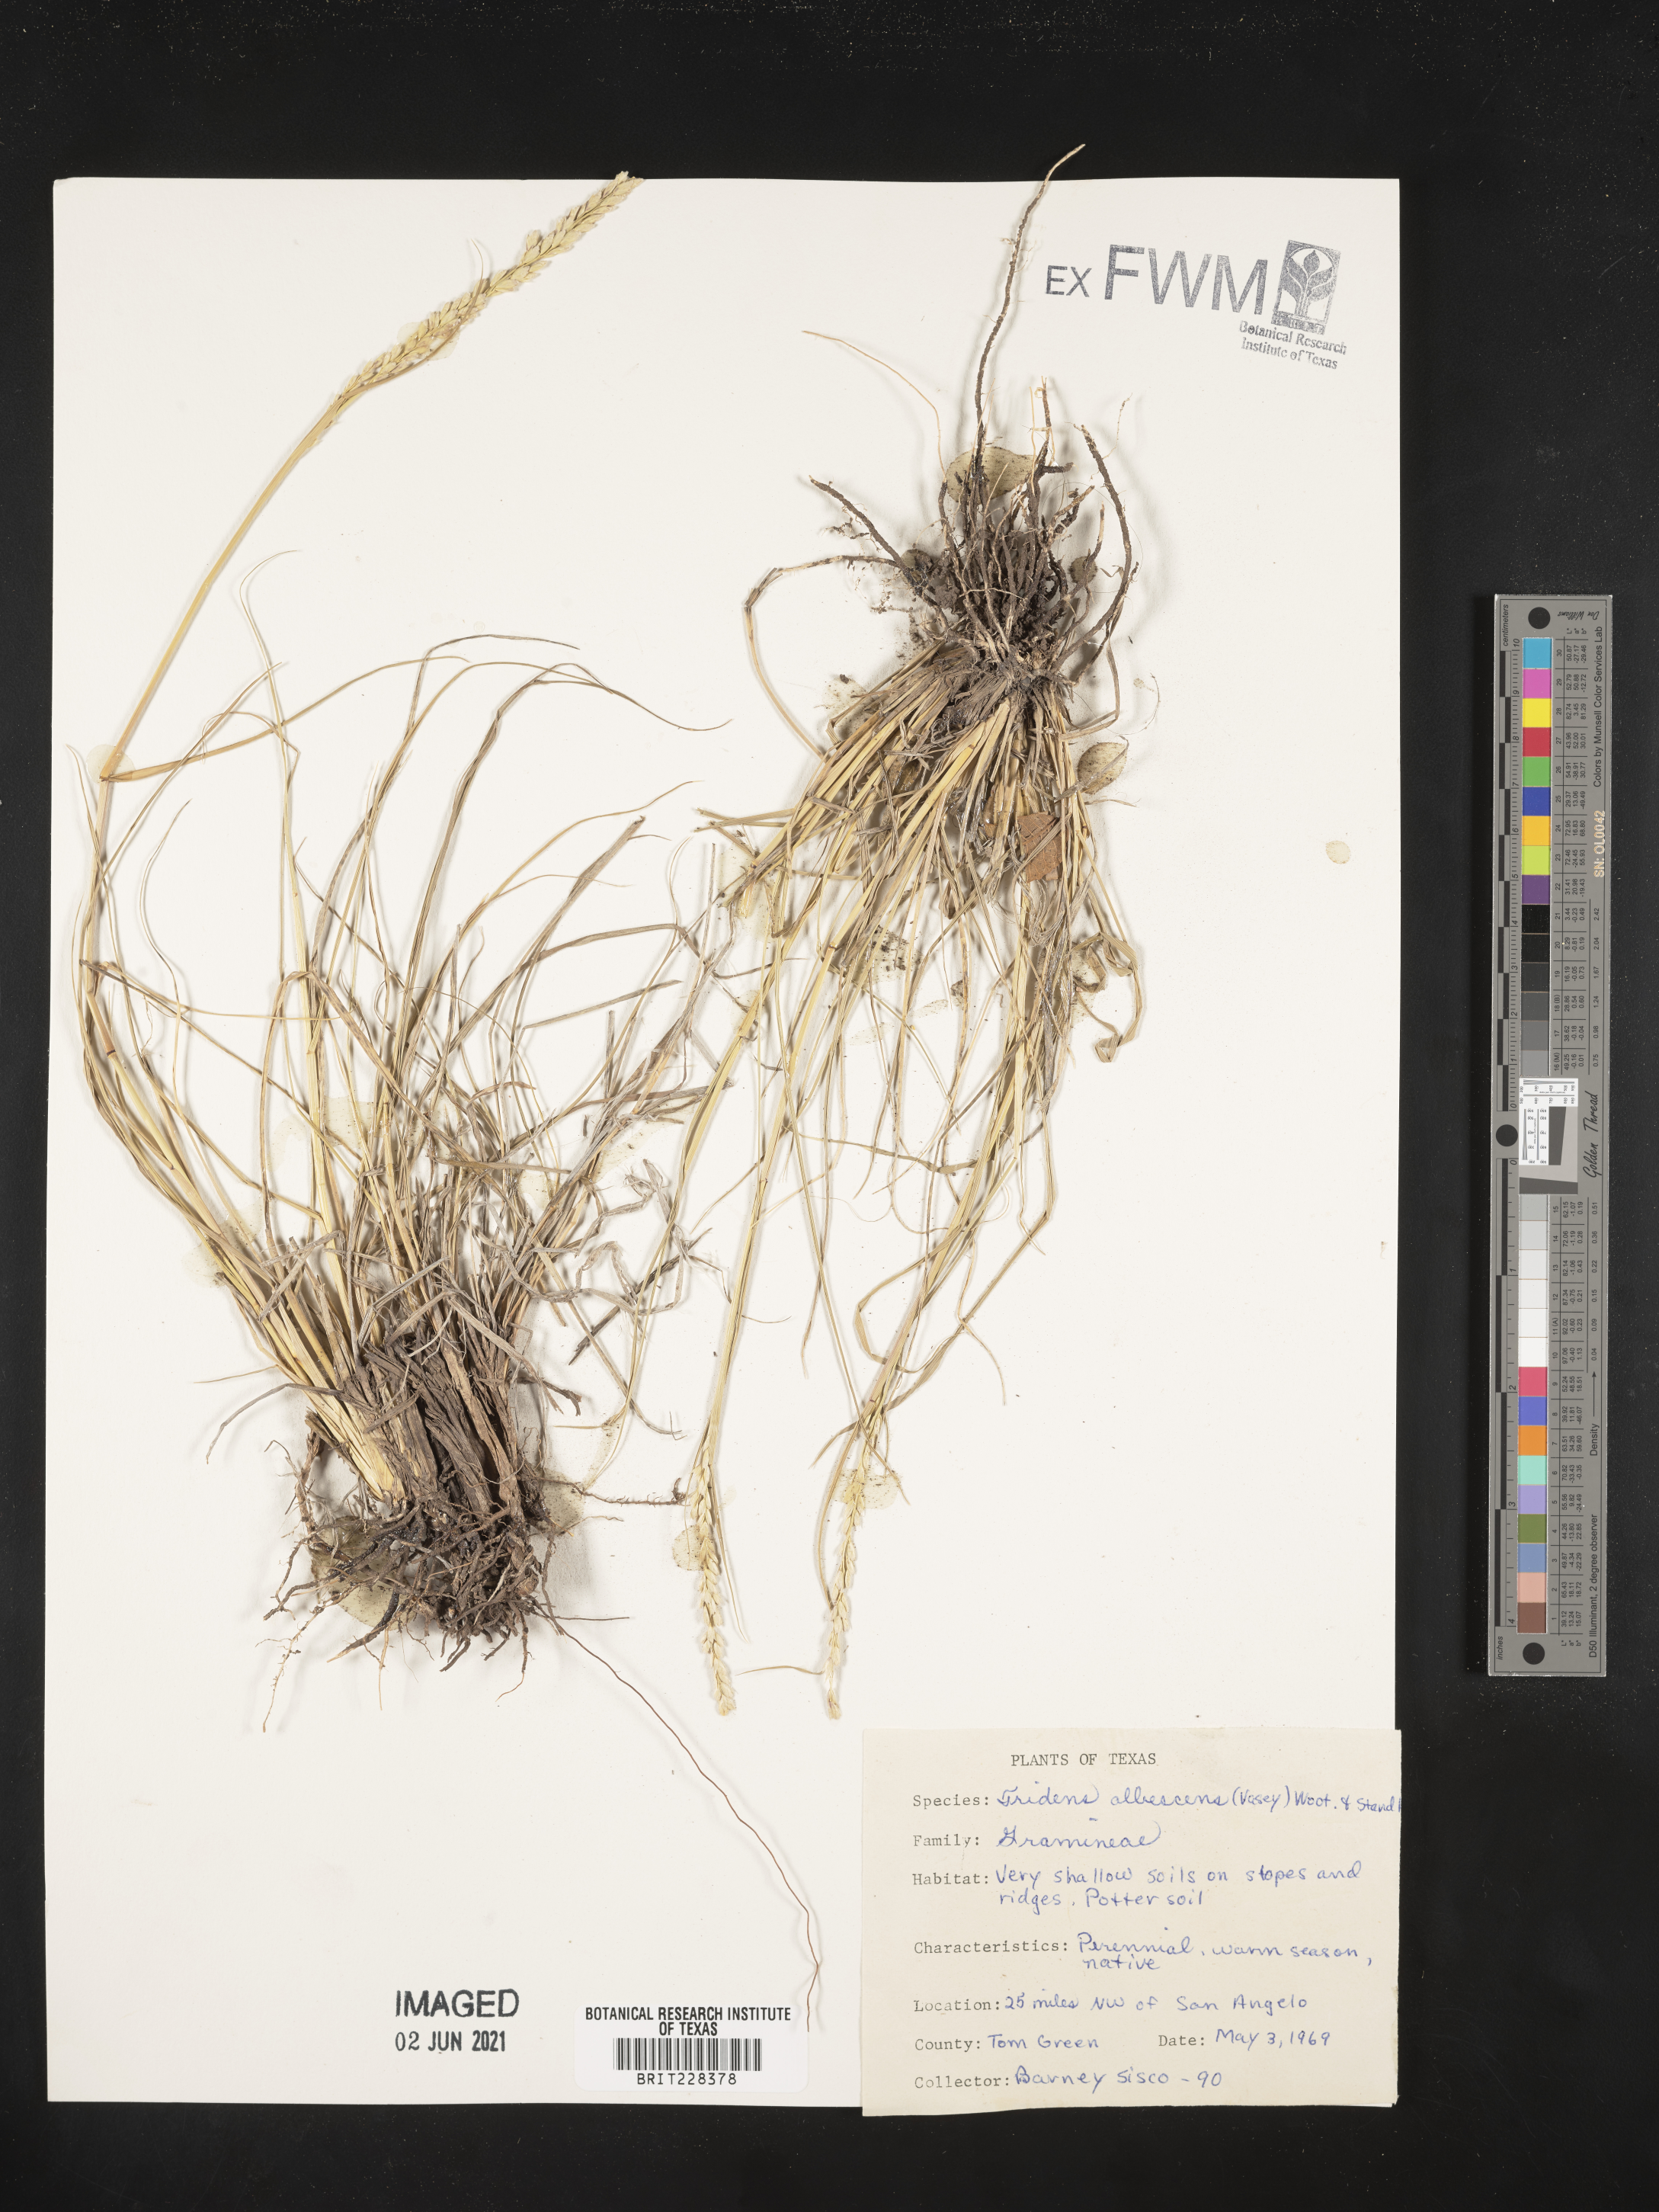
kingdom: Plantae
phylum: Tracheophyta
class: Liliopsida
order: Poales
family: Poaceae
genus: Tridens
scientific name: Tridens albescens
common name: White tridens
